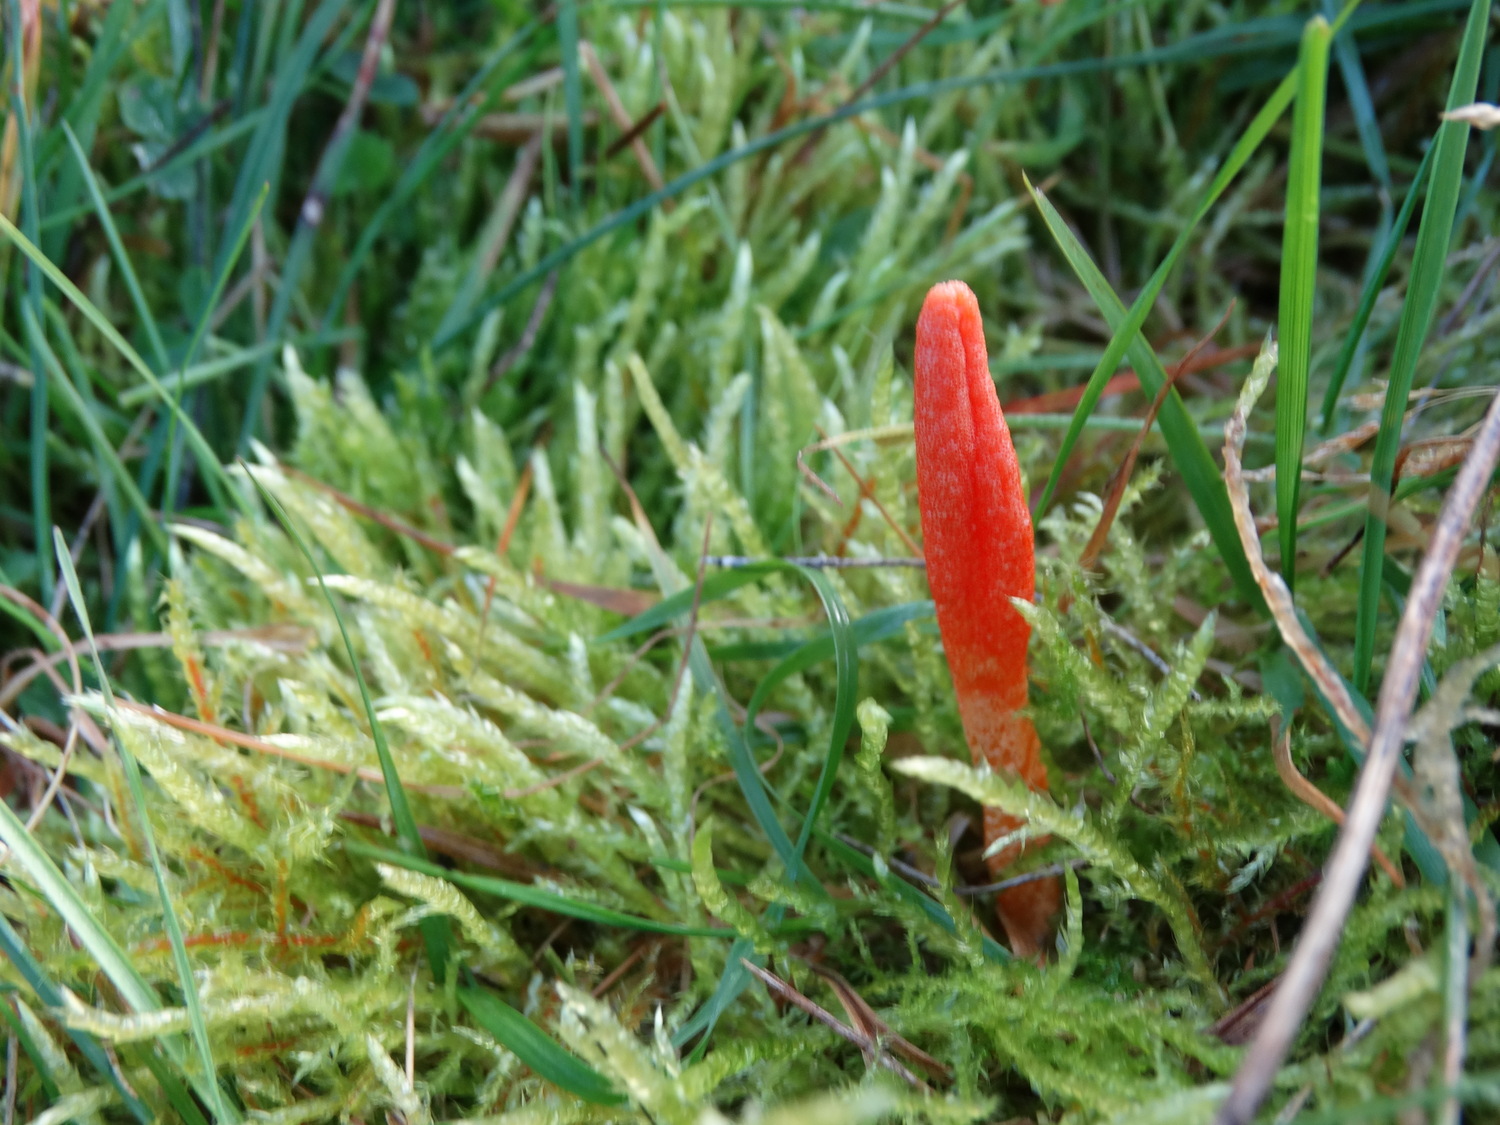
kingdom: Fungi
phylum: Ascomycota
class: Sordariomycetes
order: Hypocreales
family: Cordycipitaceae
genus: Cordyceps
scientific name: Cordyceps militaris
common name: puppe-snyltekølle
